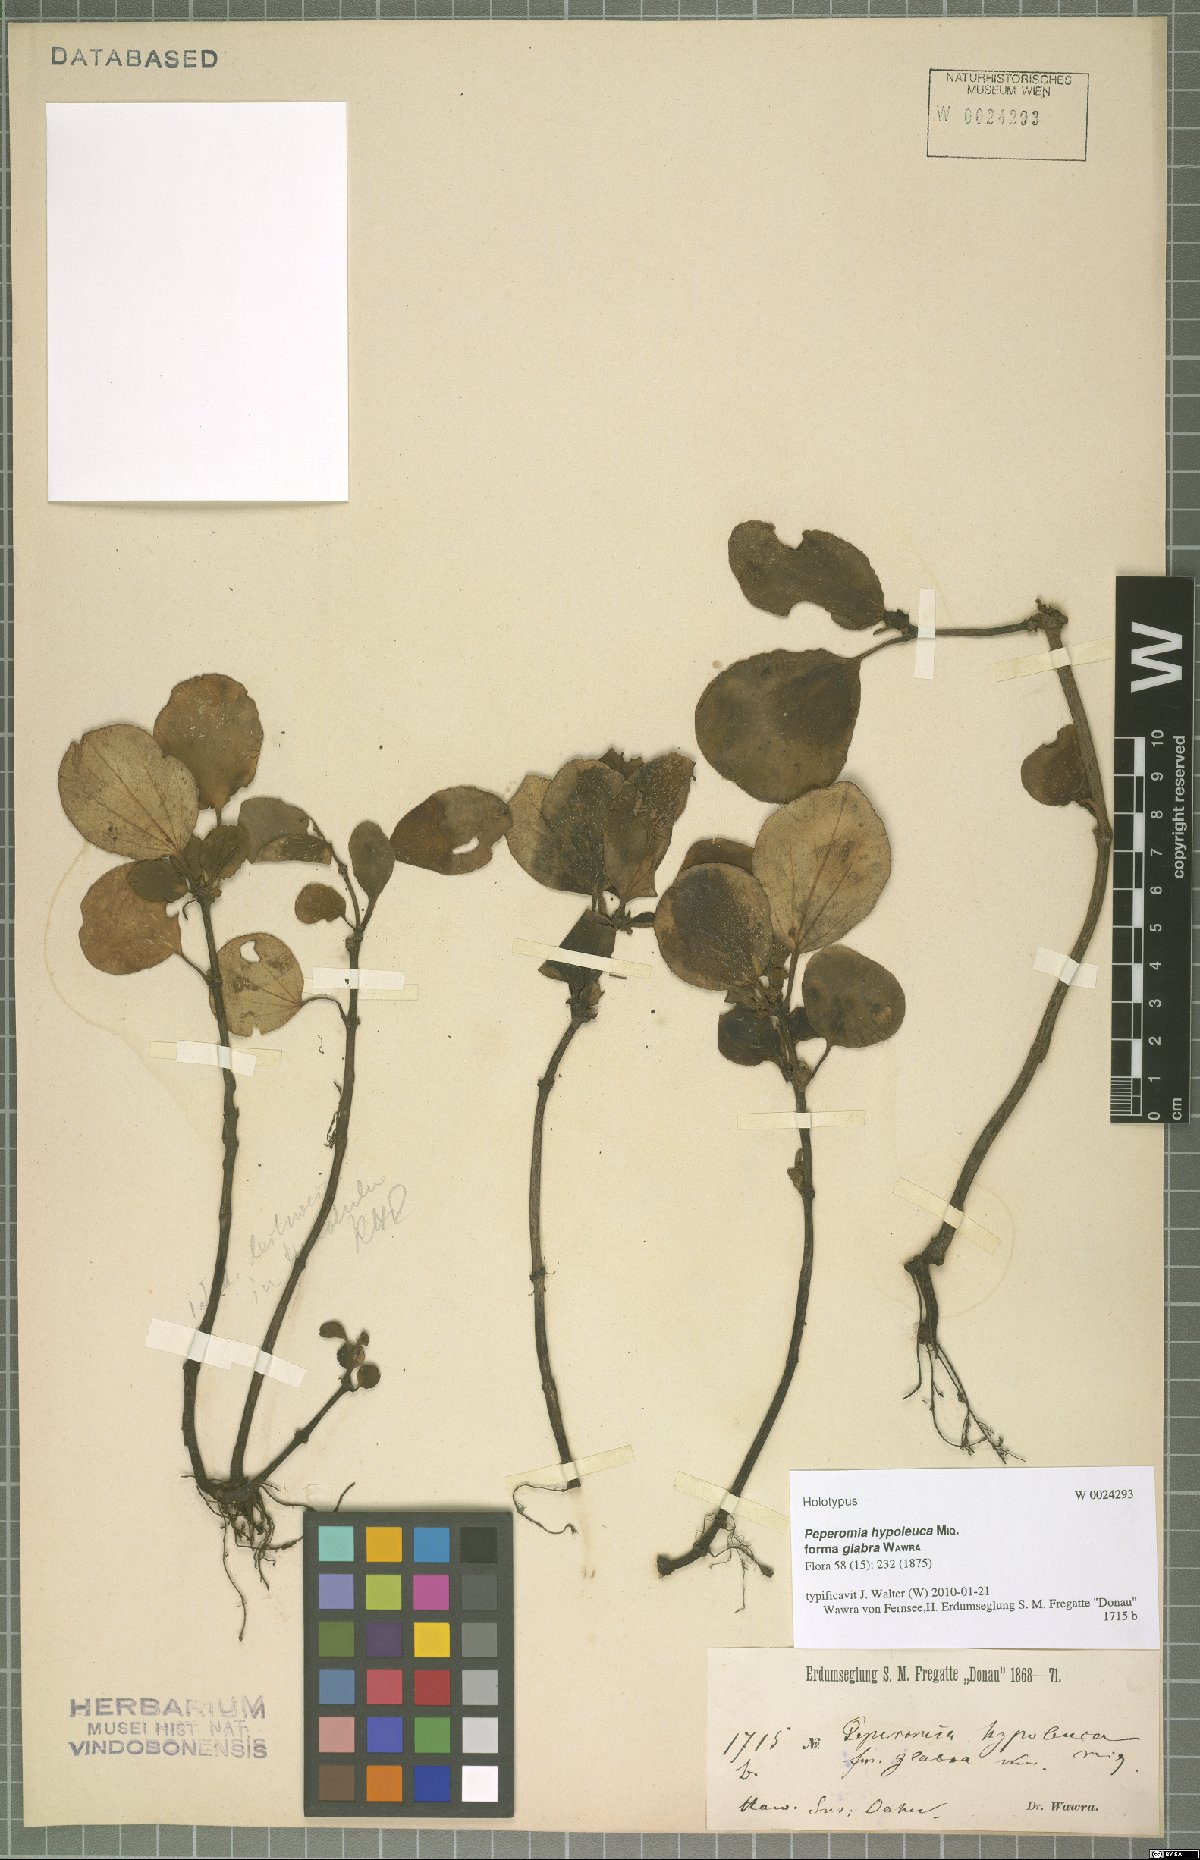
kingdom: Plantae
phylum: Tracheophyta
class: Magnoliopsida
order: Piperales
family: Piperaceae
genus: Peperomia
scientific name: Peperomia latifolia
